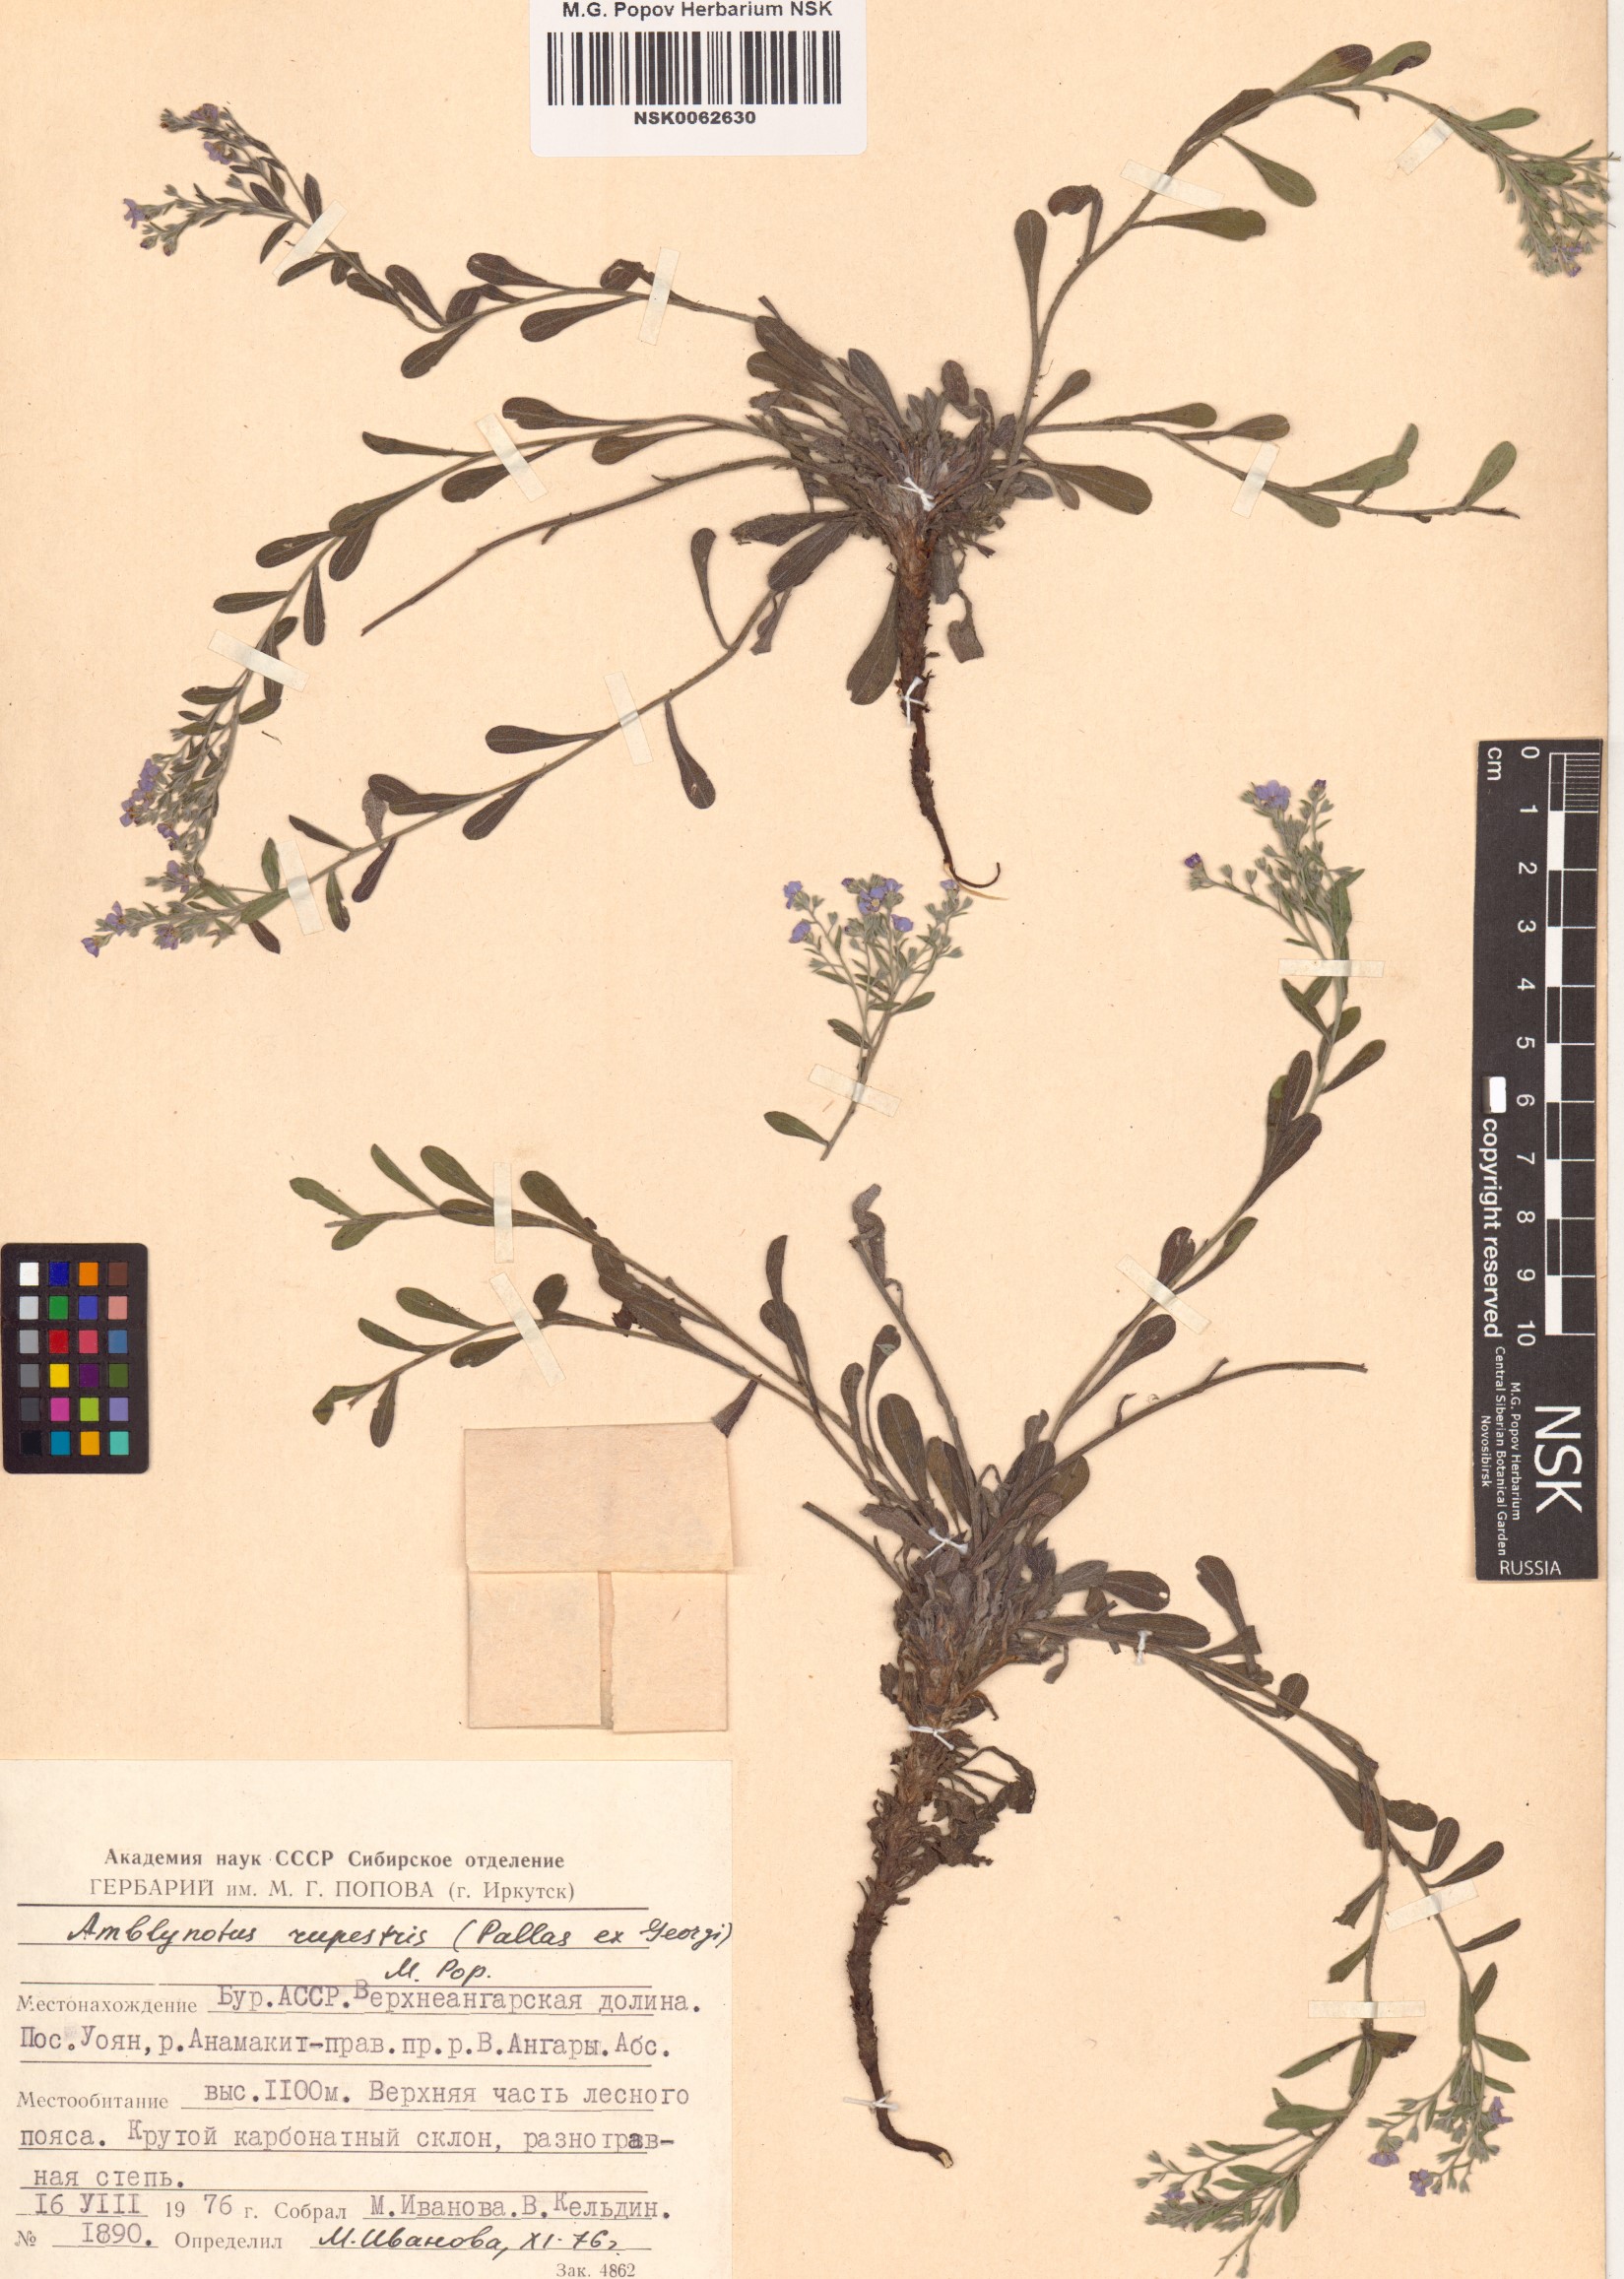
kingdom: Plantae
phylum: Tracheophyta
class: Magnoliopsida
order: Boraginales
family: Boraginaceae
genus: Eritrichium
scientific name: Eritrichium rupestre
